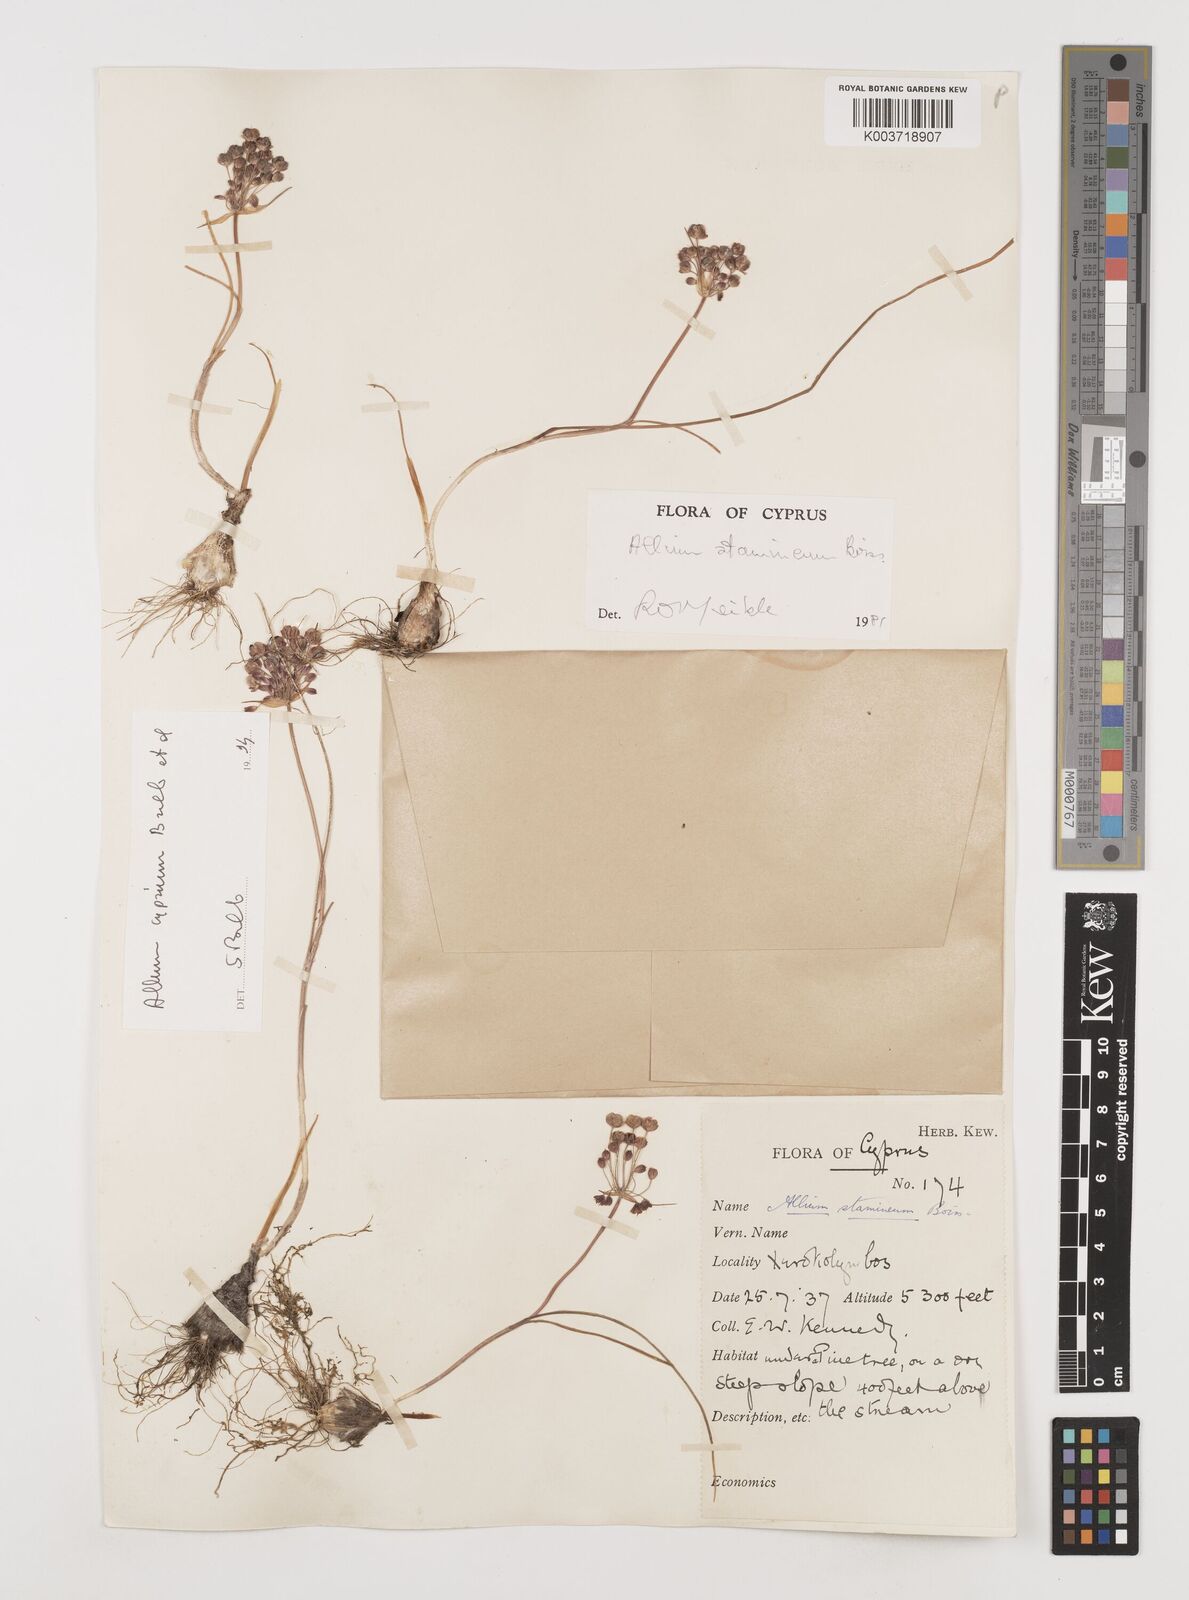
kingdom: Plantae
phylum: Tracheophyta
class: Liliopsida
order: Asparagales
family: Amaryllidaceae
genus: Allium
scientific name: Allium stamineum
